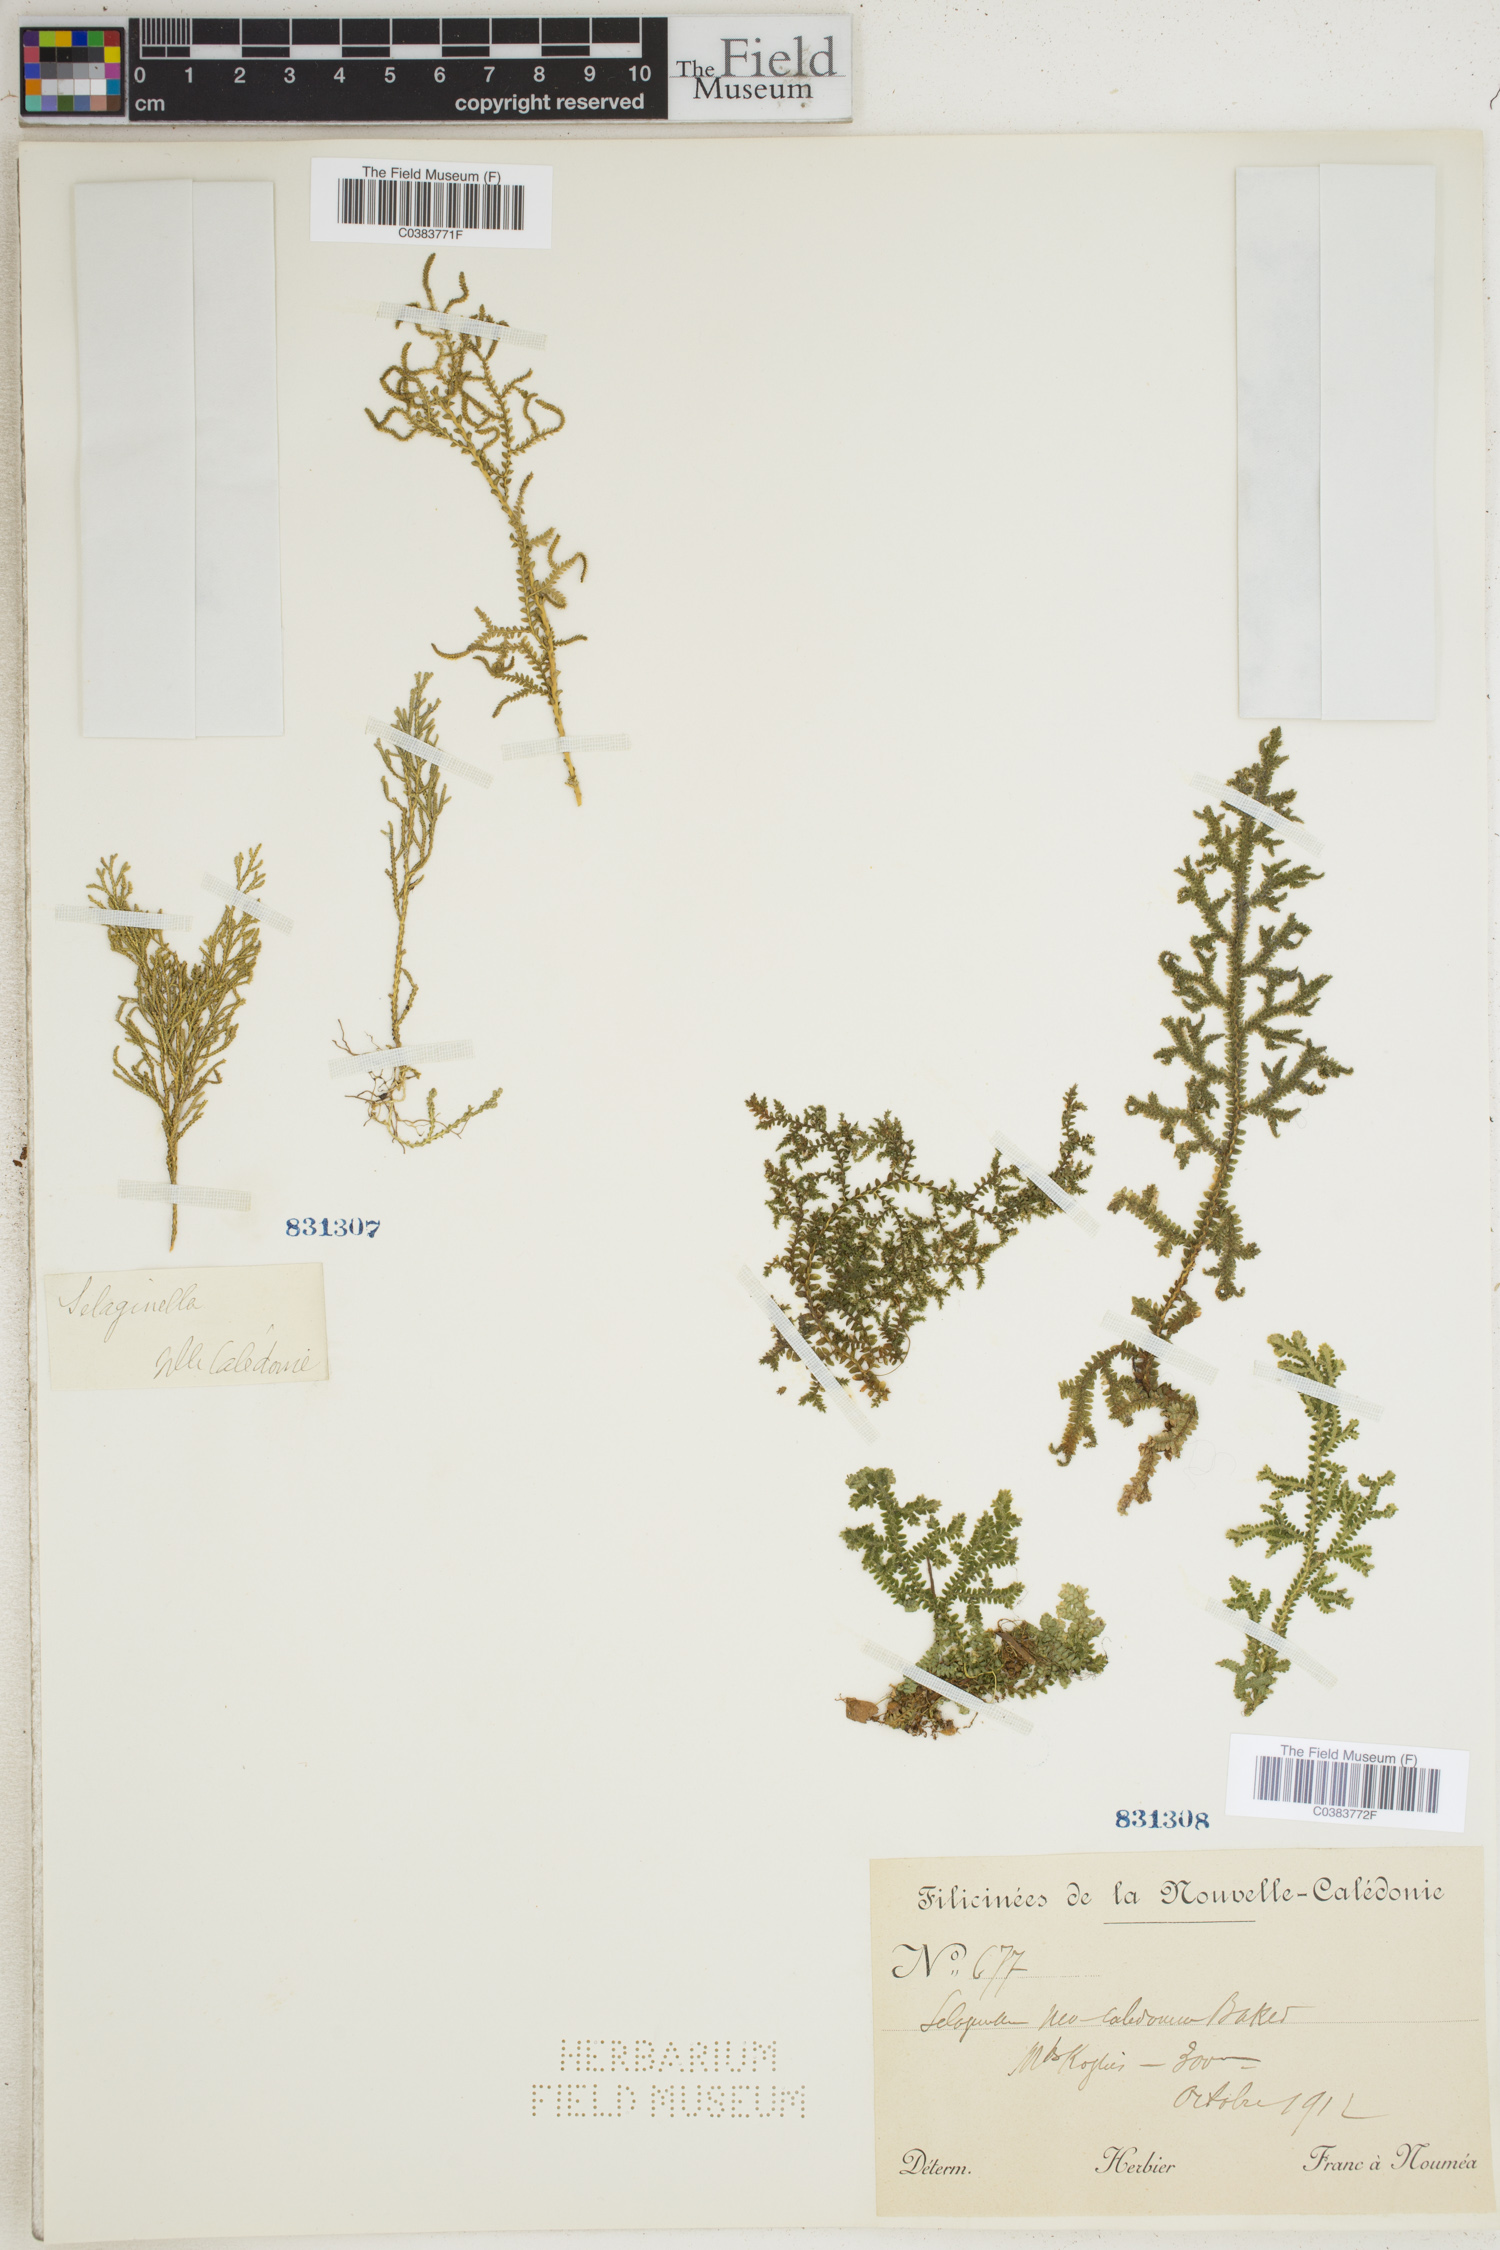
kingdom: Plantae
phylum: Tracheophyta
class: Lycopodiopsida
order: Selaginellales
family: Selaginellaceae
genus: Selaginella
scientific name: Selaginella
